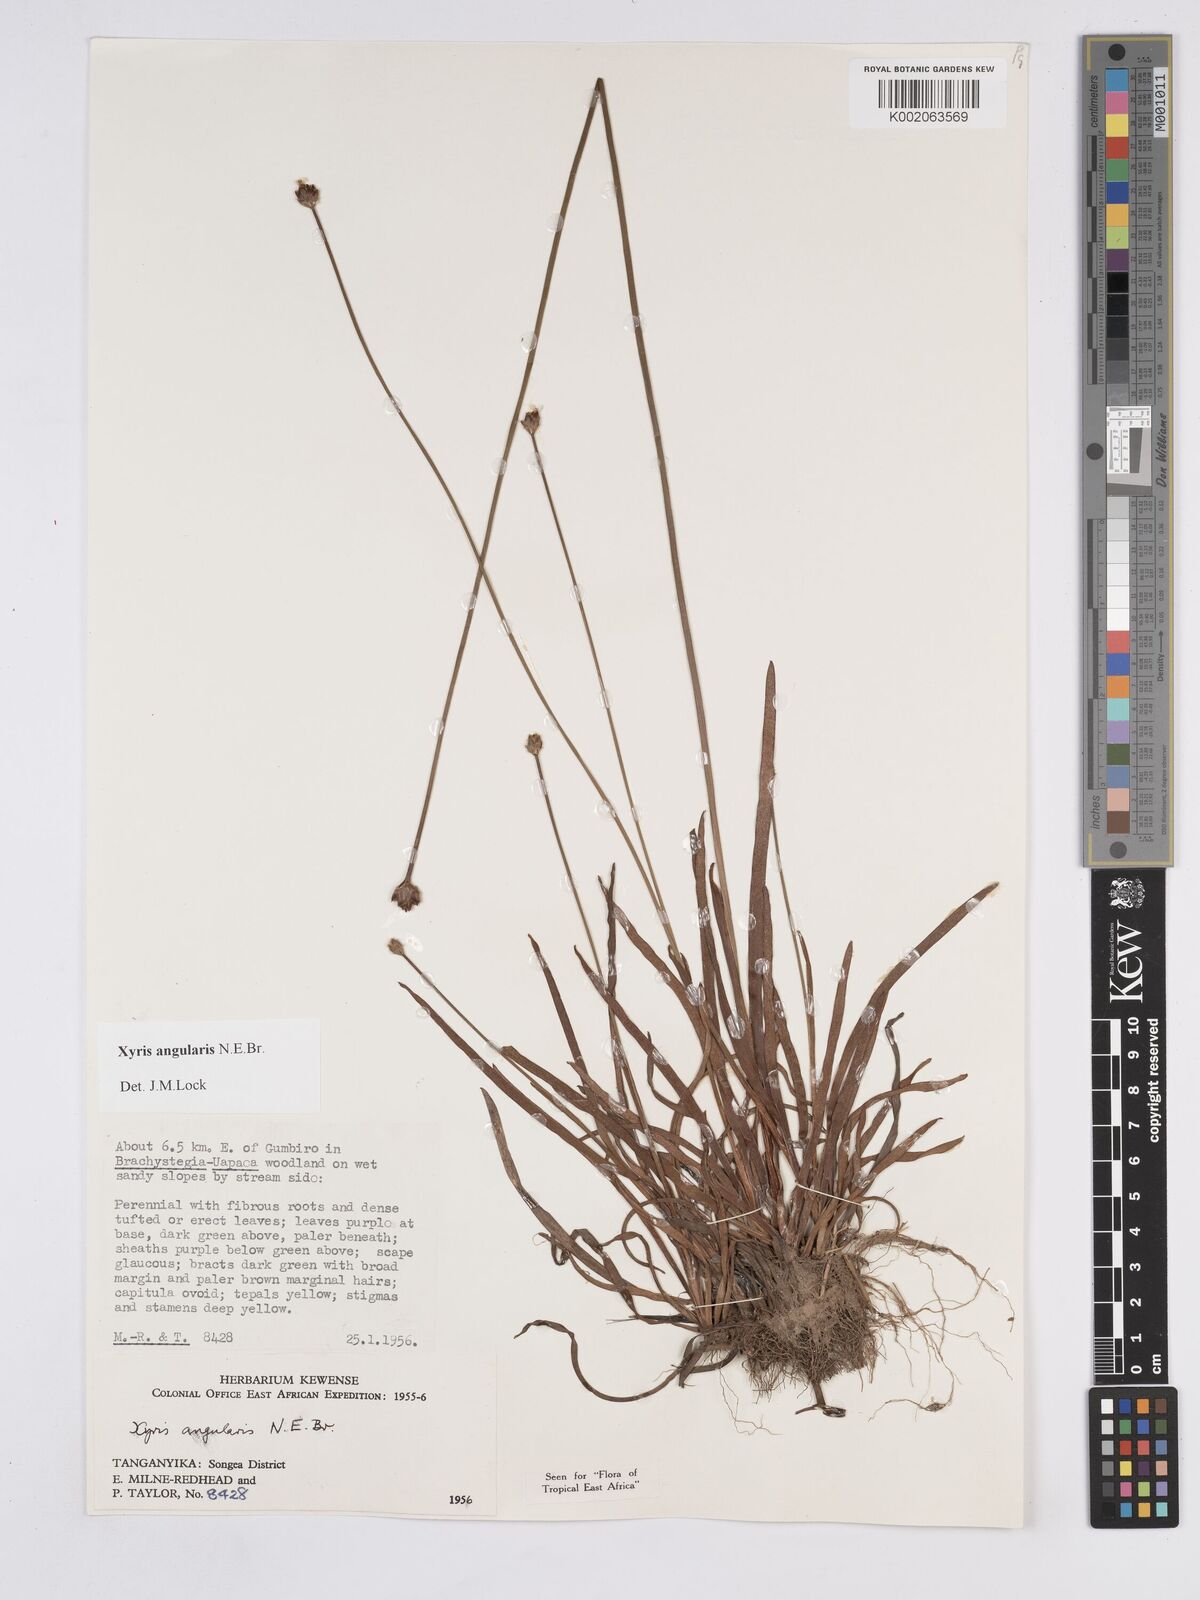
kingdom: Plantae
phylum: Tracheophyta
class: Liliopsida
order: Poales
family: Xyridaceae
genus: Xyris
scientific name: Xyris angularis
